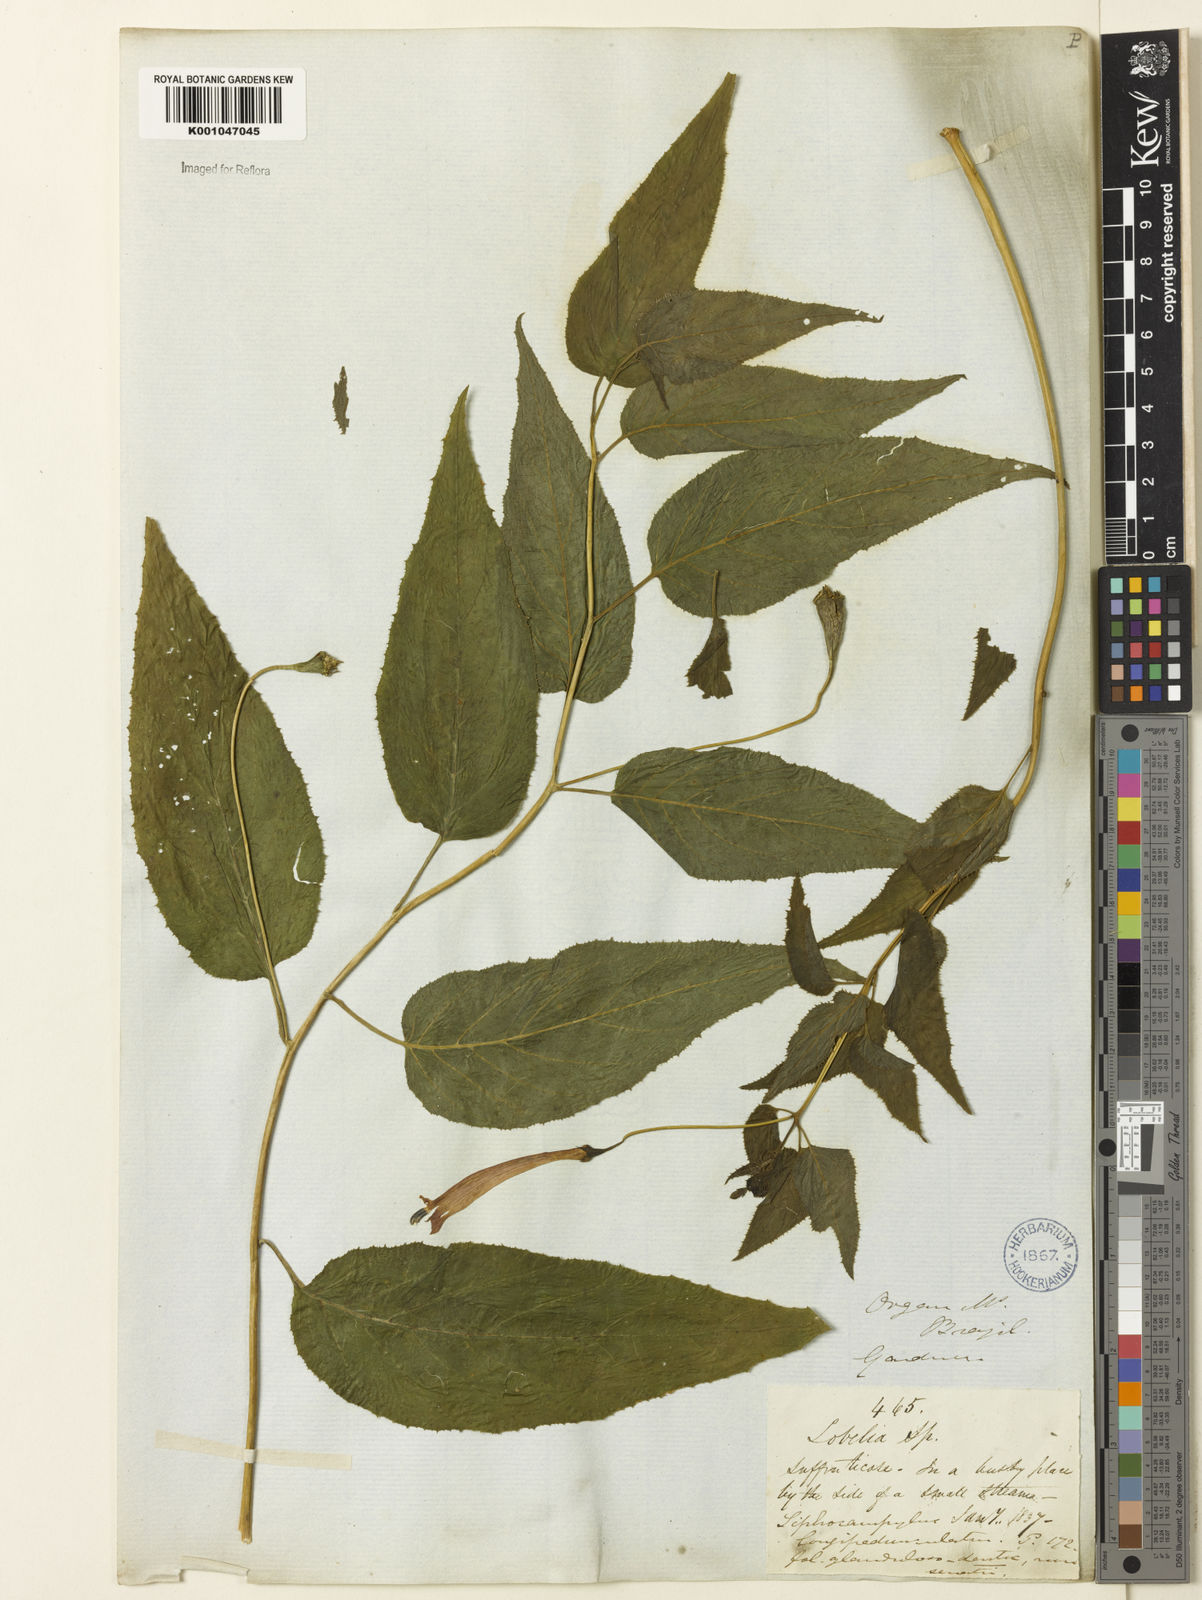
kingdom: Plantae
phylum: Tracheophyta
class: Magnoliopsida
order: Asterales
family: Campanulaceae
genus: Siphocampylus
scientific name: Siphocampylus longipedunculatus
